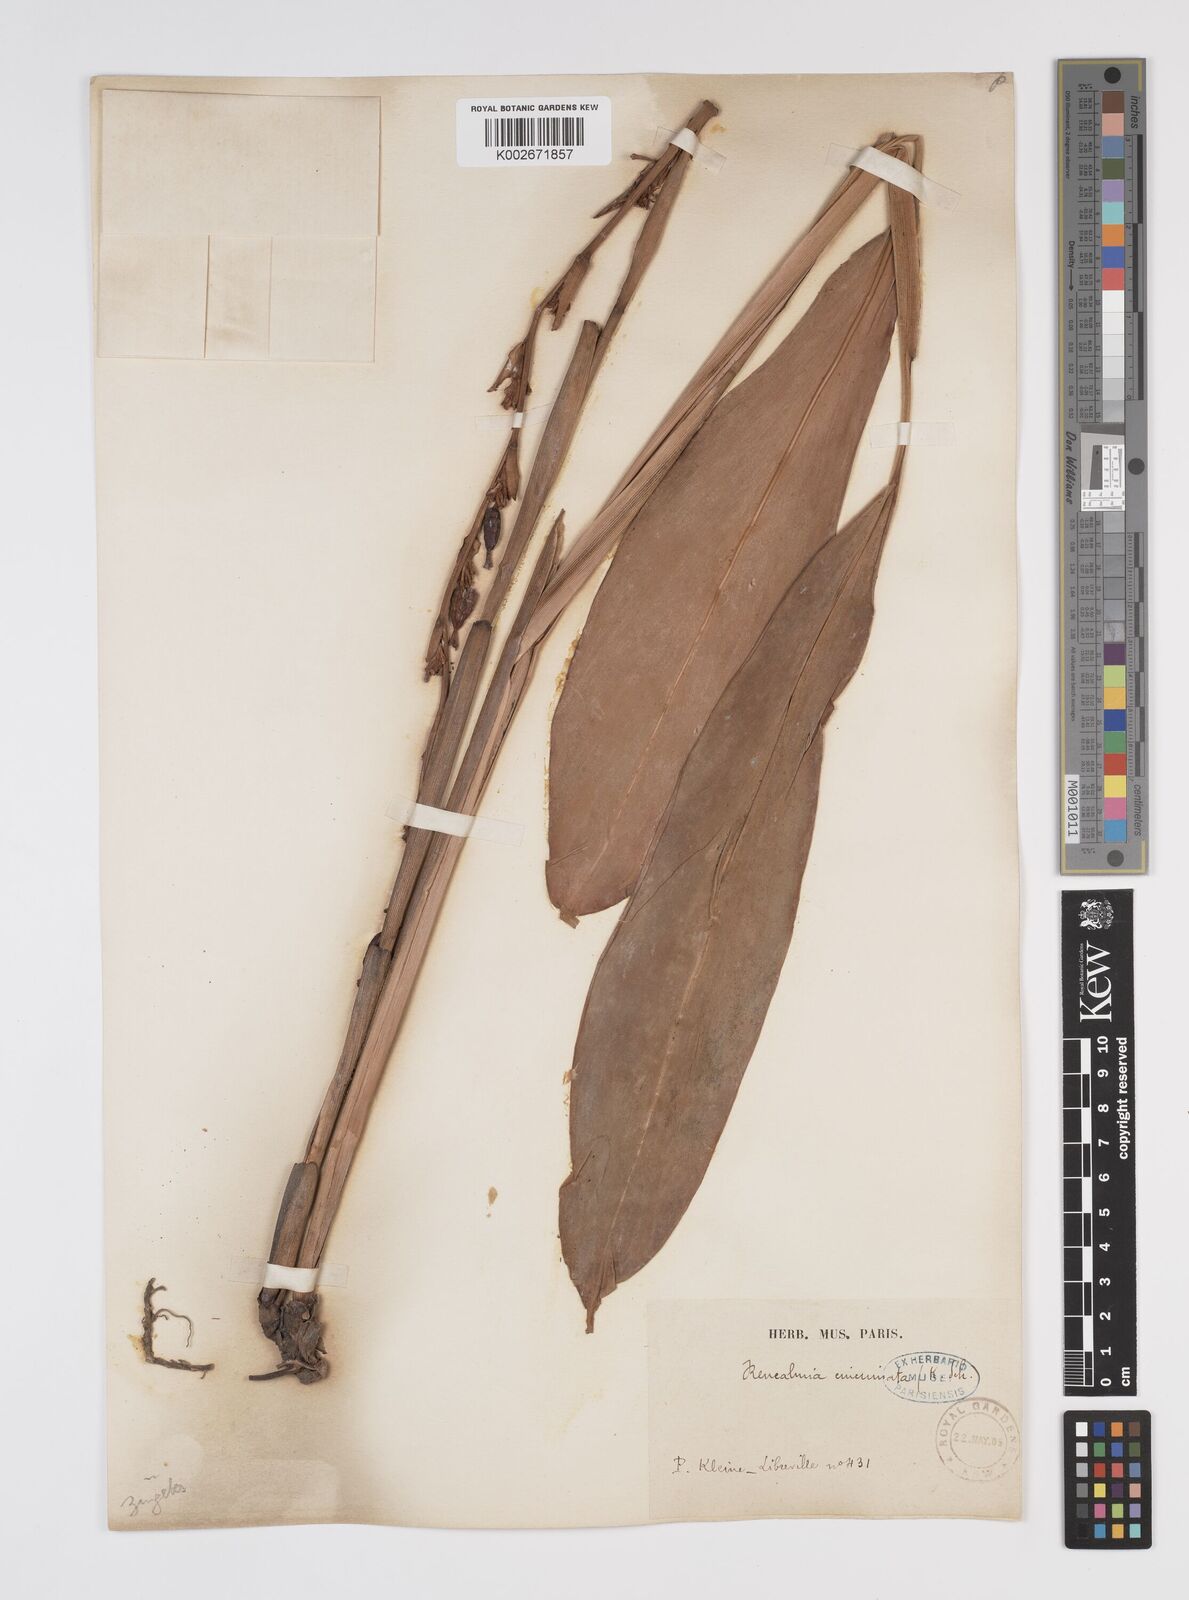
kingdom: Plantae
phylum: Tracheophyta
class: Liliopsida
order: Zingiberales
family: Zingiberaceae
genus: Renealmia
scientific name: Renealmia cincinnata
